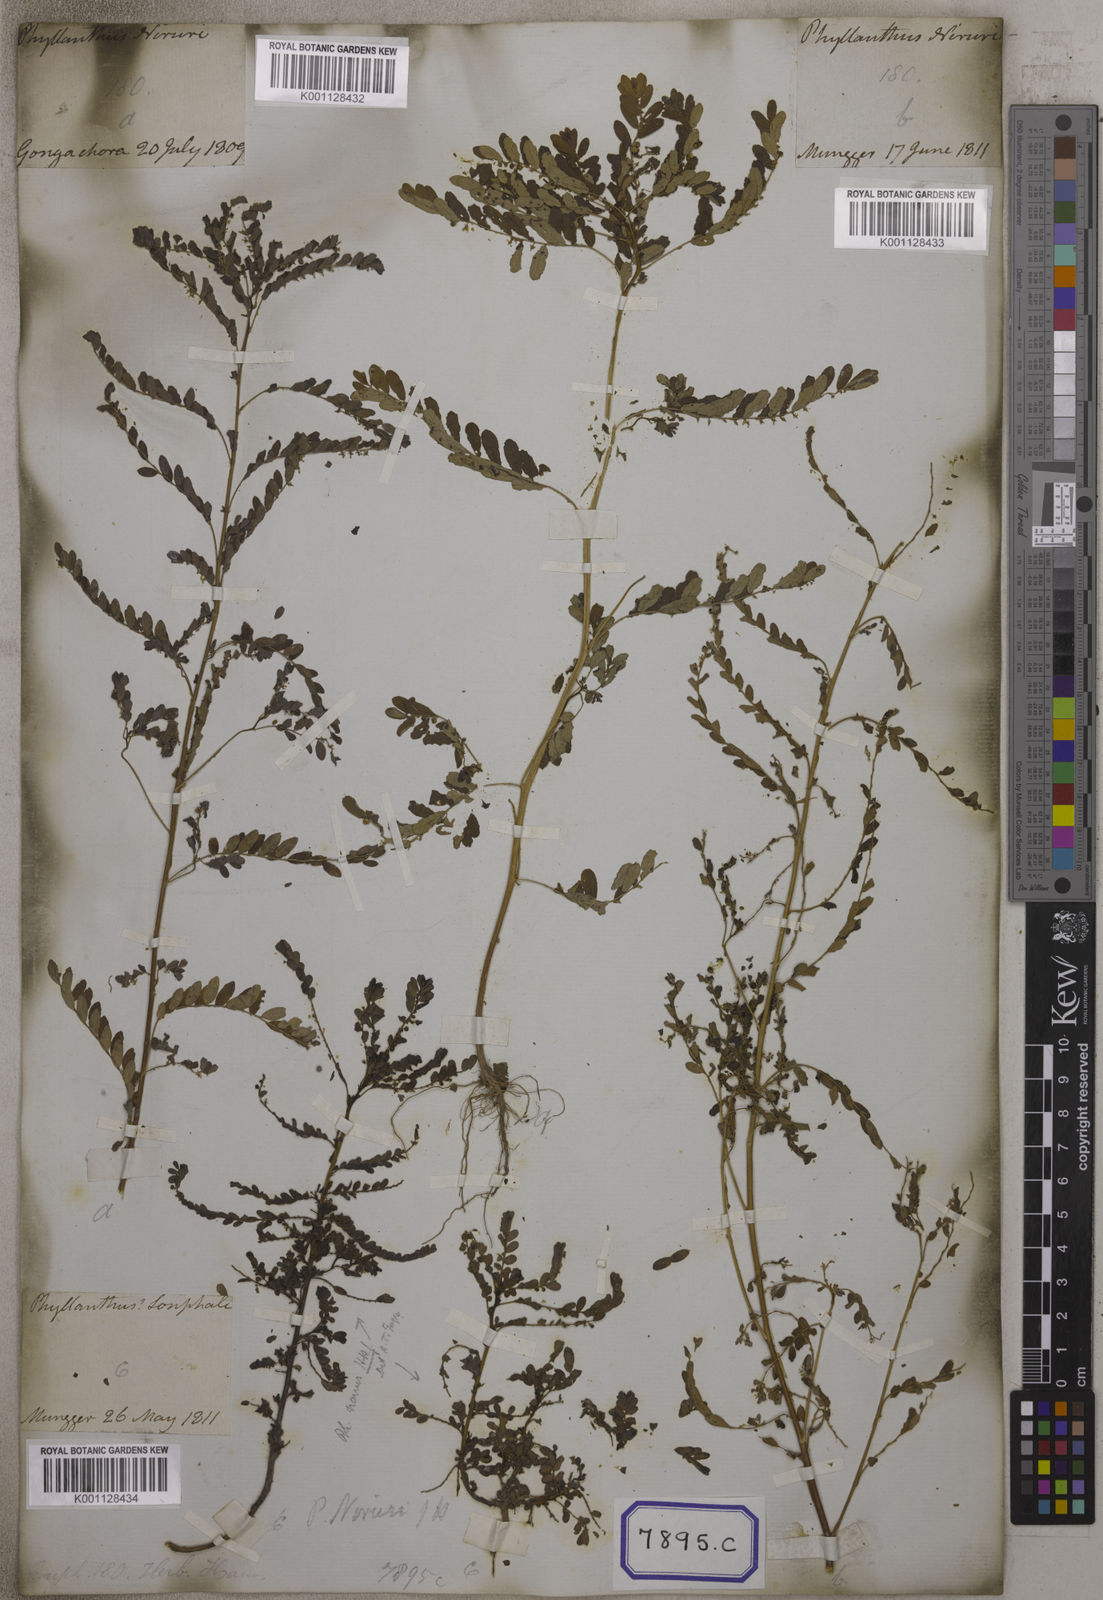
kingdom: Plantae
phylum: Tracheophyta
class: Magnoliopsida
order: Malpighiales
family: Euphorbiaceae
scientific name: Euphorbiaceae
